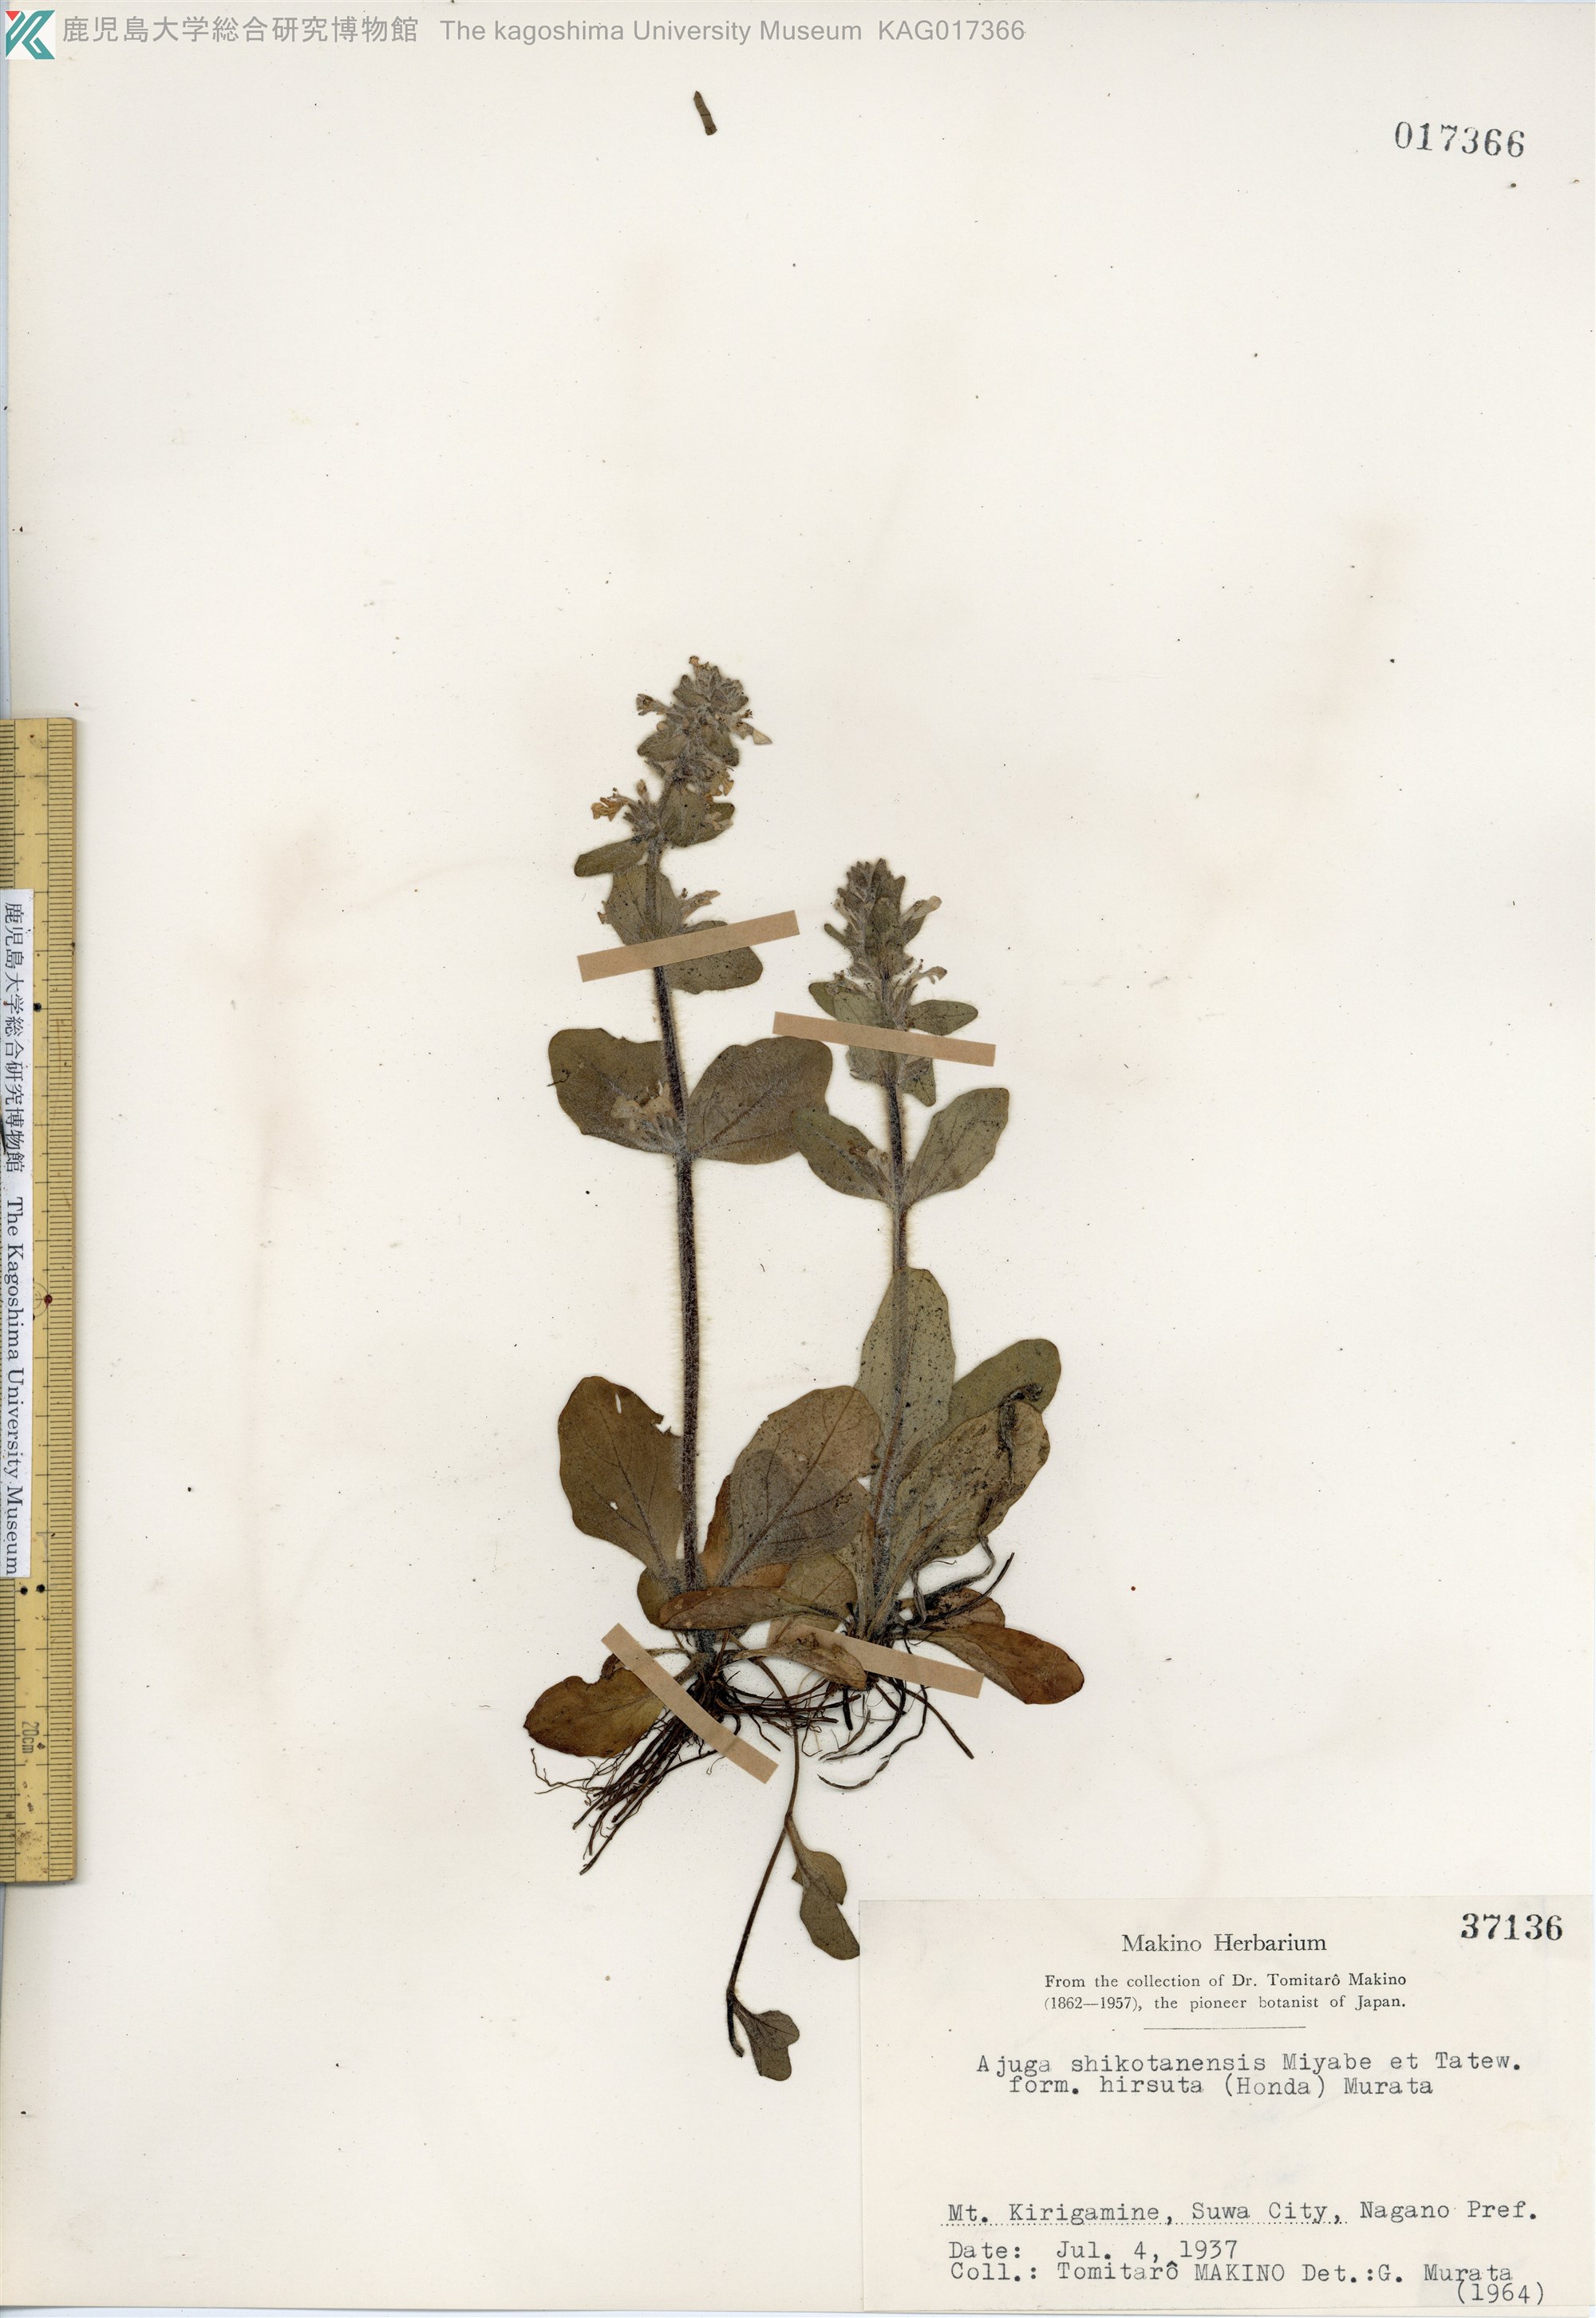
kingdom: Plantae
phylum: Tracheophyta
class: Magnoliopsida
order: Lamiales
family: Lamiaceae
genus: Ajuga
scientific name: Ajuga shikotanensis
